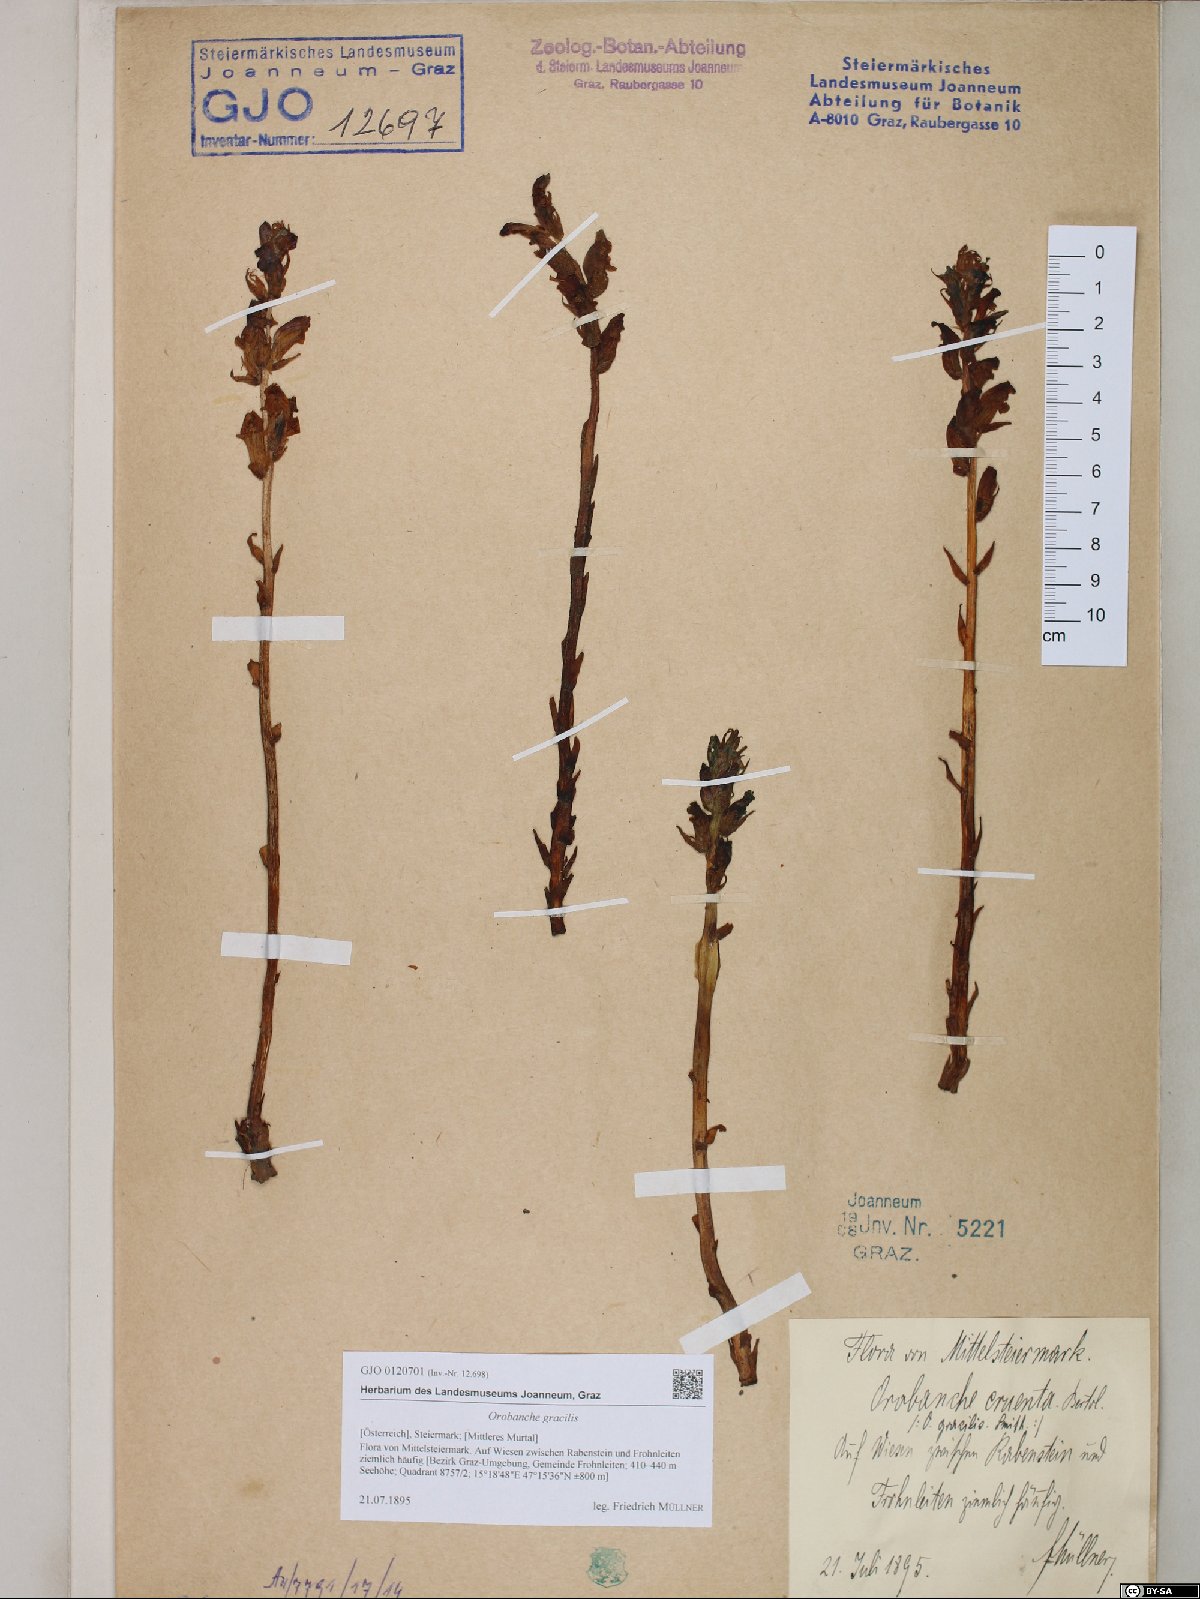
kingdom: Plantae
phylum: Tracheophyta
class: Magnoliopsida
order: Lamiales
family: Orobanchaceae
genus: Orobanche
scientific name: Orobanche gracilis
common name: Slender broomrape
